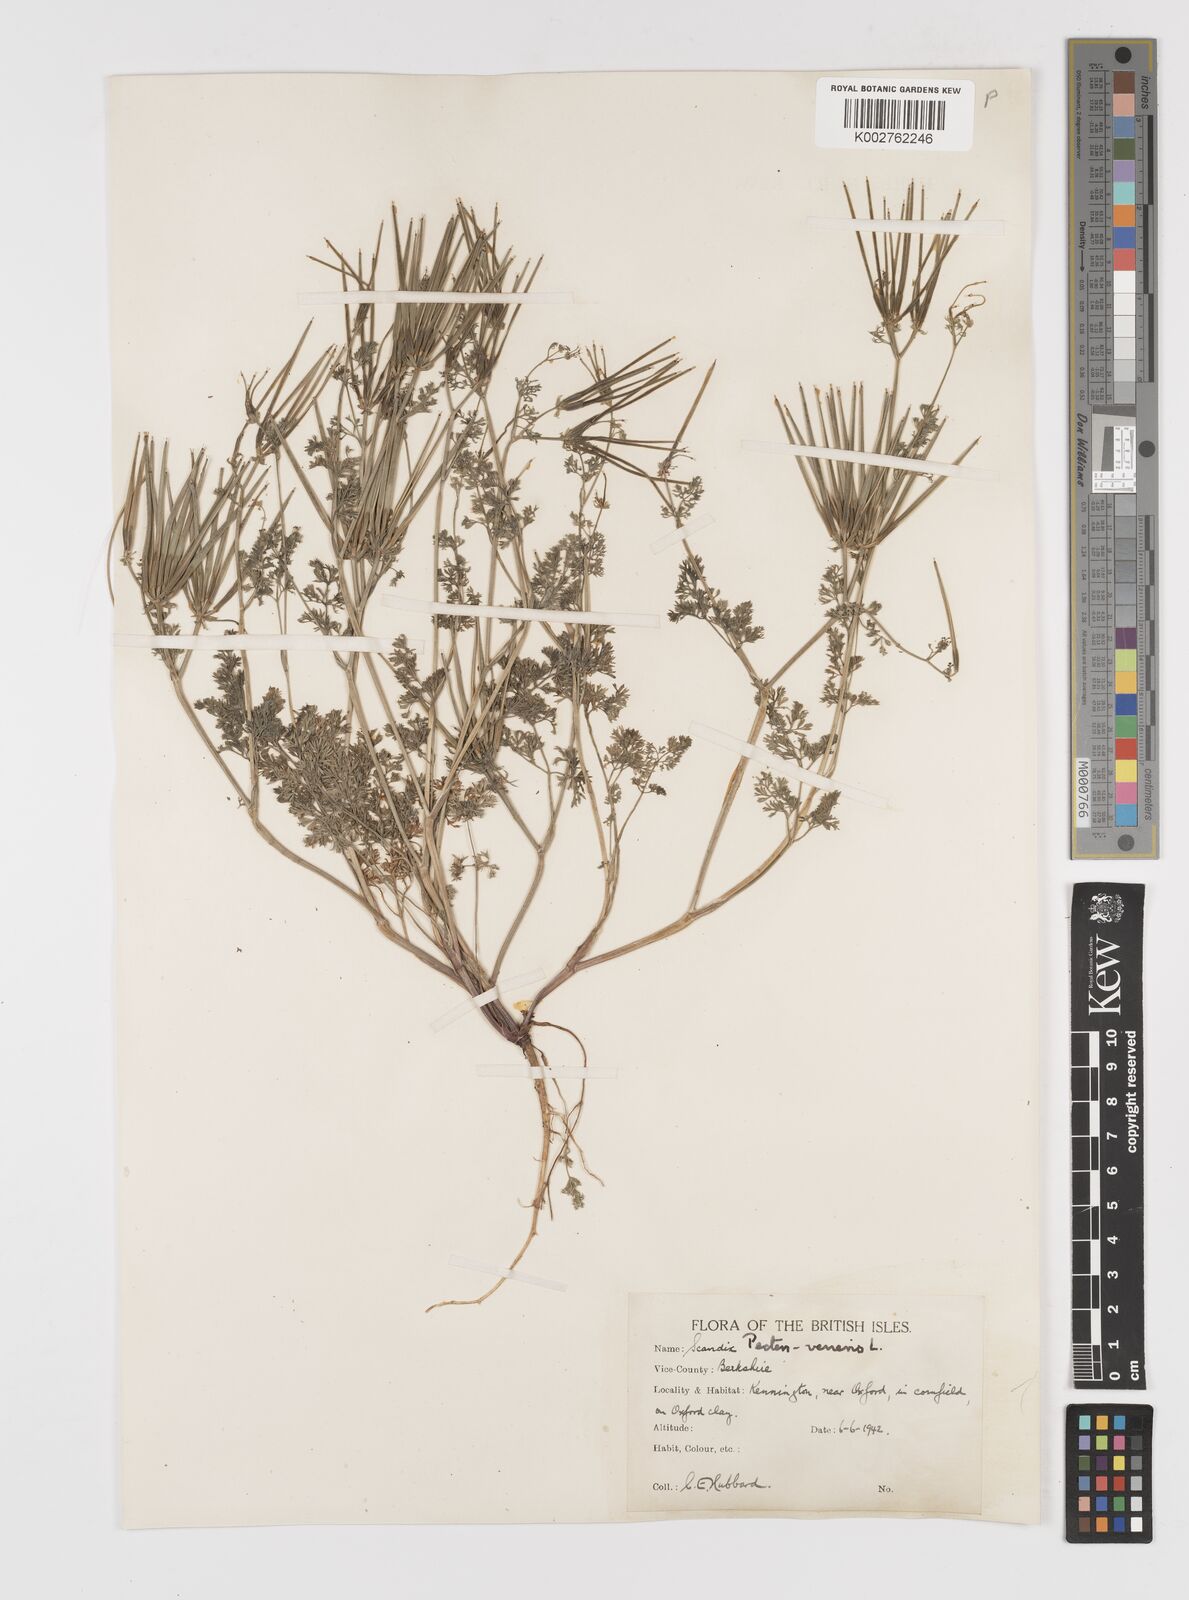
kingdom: Plantae
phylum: Tracheophyta
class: Magnoliopsida
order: Apiales
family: Apiaceae
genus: Scandix
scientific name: Scandix pecten-veneris
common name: Shepherd's-needle
